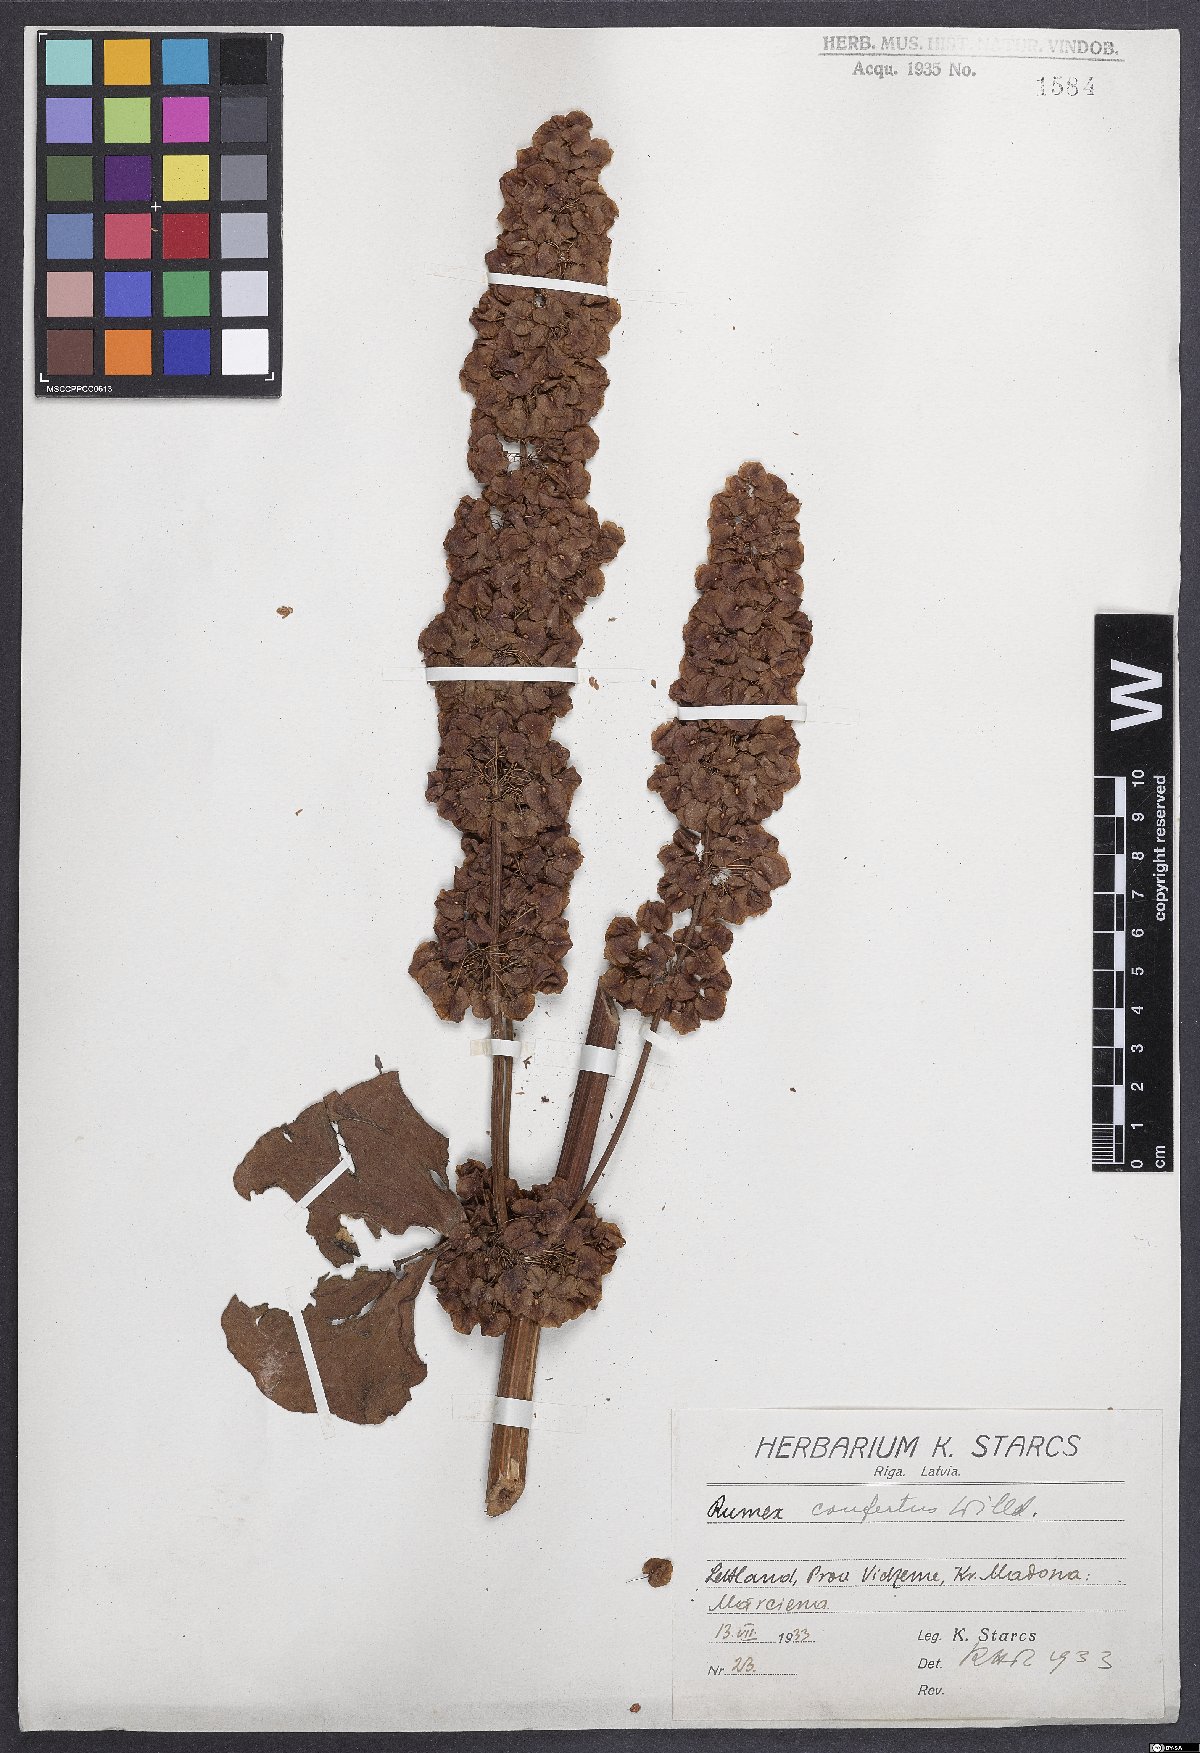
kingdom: Plantae
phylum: Tracheophyta
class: Magnoliopsida
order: Caryophyllales
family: Polygonaceae
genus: Rumex
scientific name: Rumex confertus
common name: Russian dock
